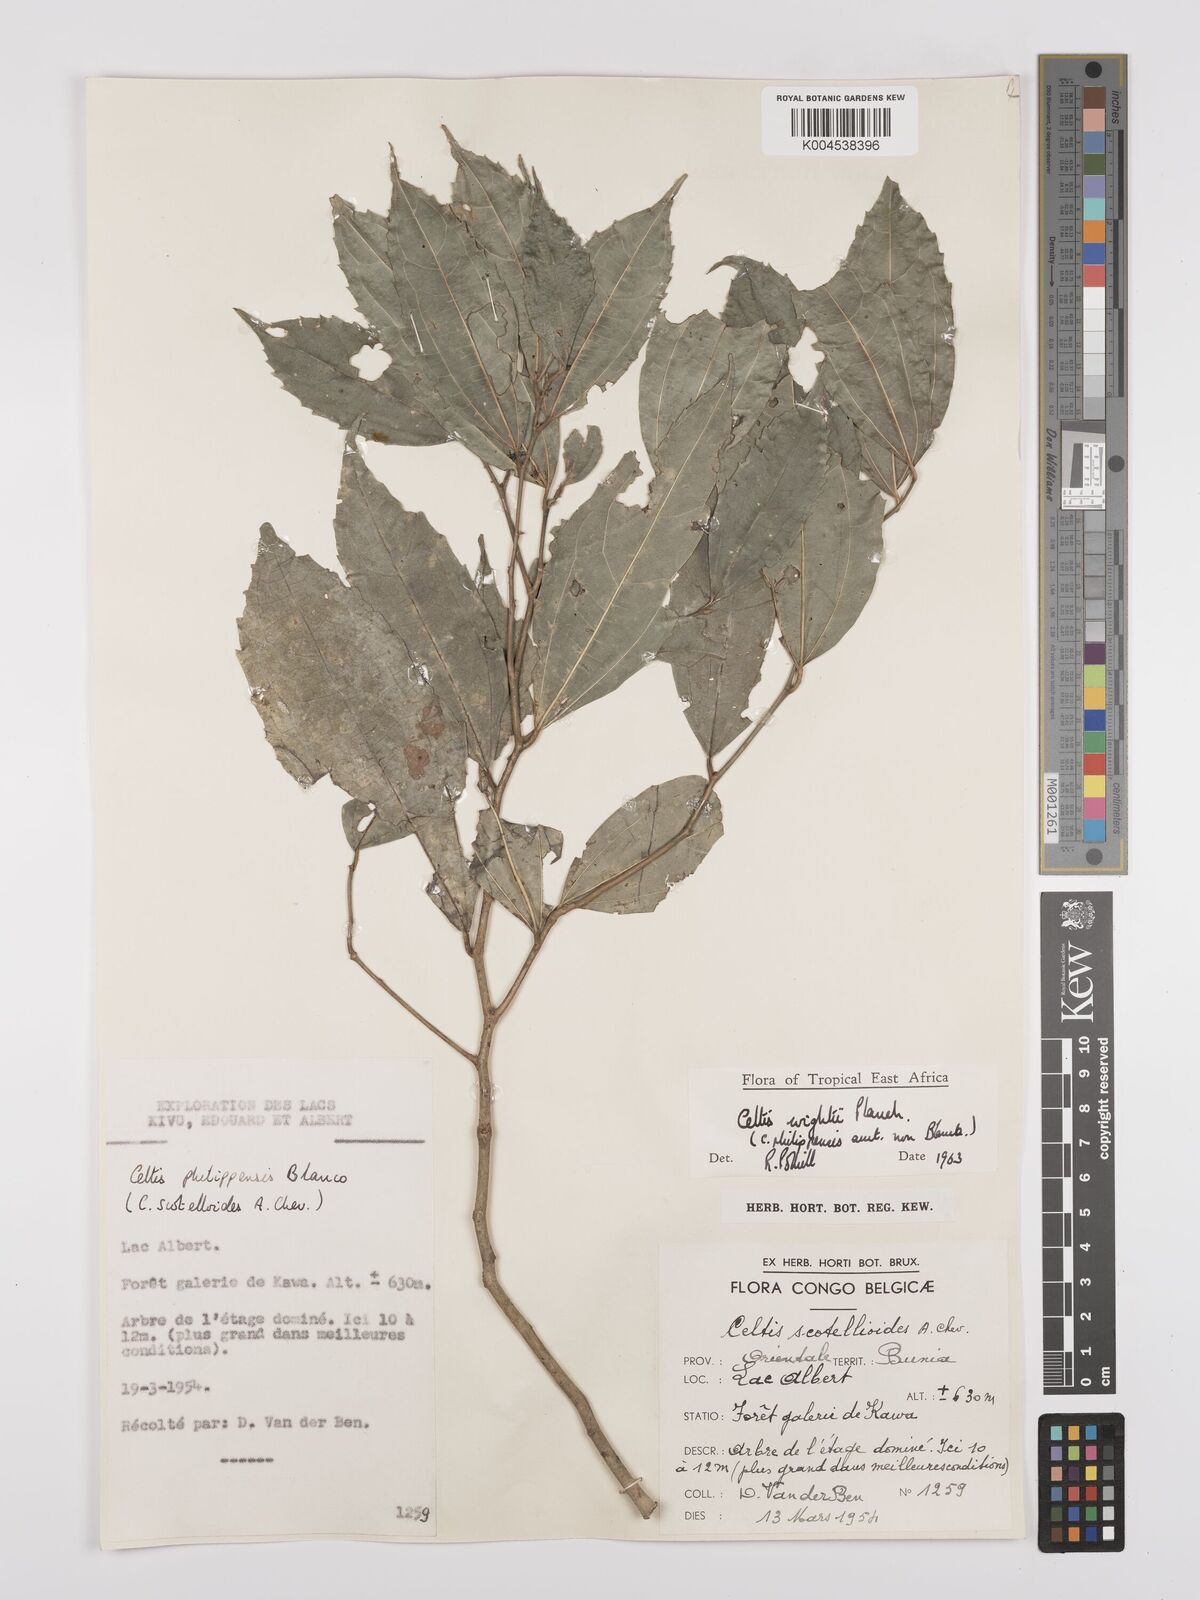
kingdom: Plantae
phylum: Tracheophyta
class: Magnoliopsida
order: Rosales
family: Cannabaceae
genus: Celtis
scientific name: Celtis philippensis
